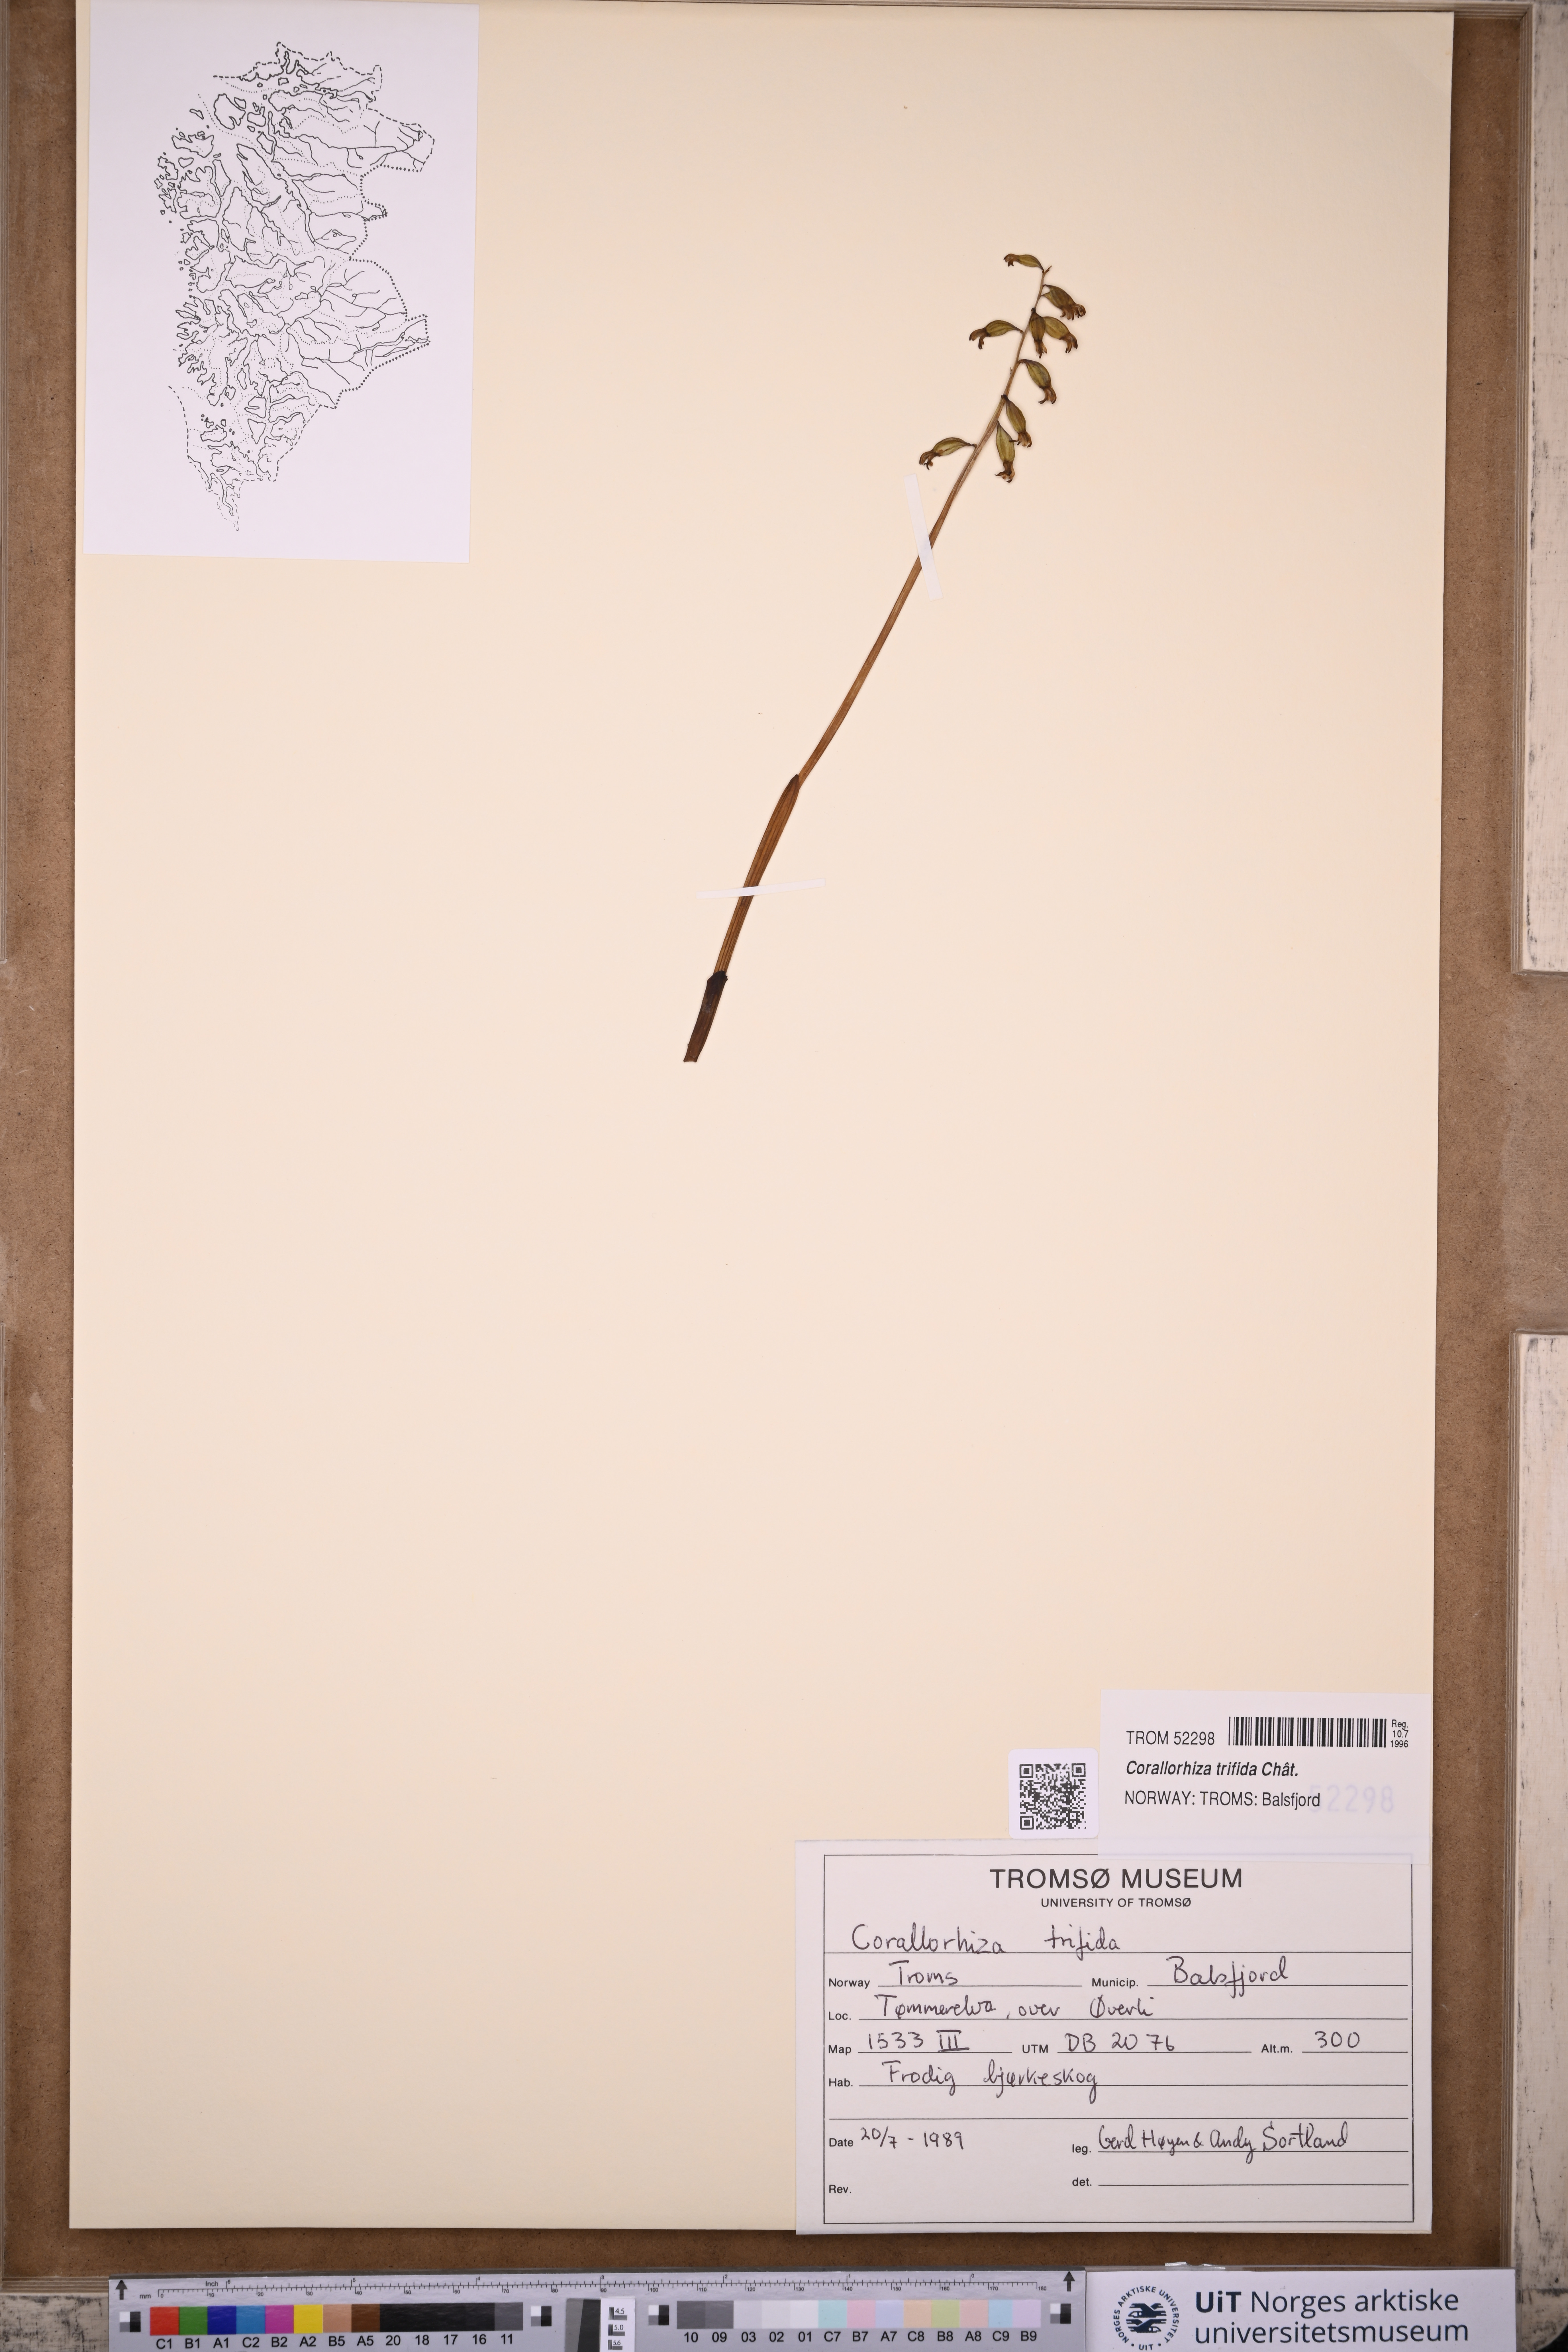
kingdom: Plantae
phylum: Tracheophyta
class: Liliopsida
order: Asparagales
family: Orchidaceae
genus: Corallorhiza
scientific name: Corallorhiza trifida
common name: Yellow coralroot
